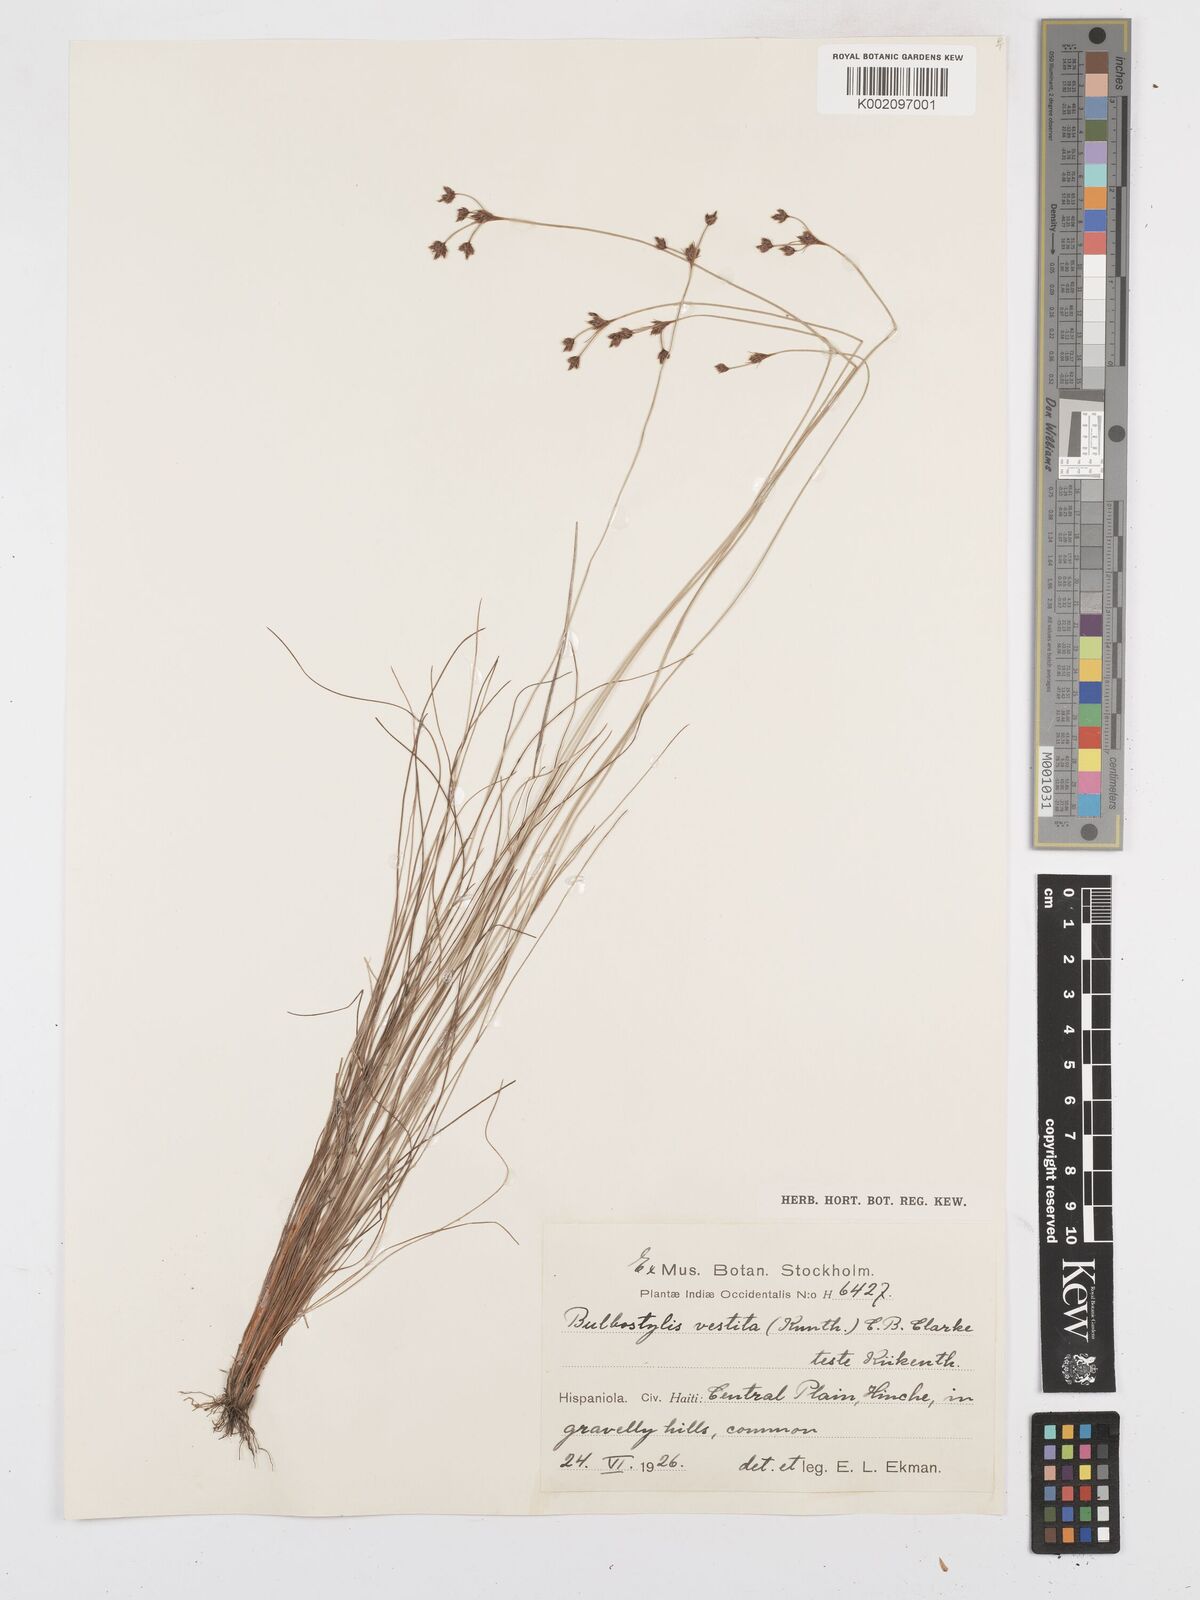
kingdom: Plantae
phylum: Tracheophyta
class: Liliopsida
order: Poales
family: Cyperaceae
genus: Bulbostylis
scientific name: Bulbostylis vestita
